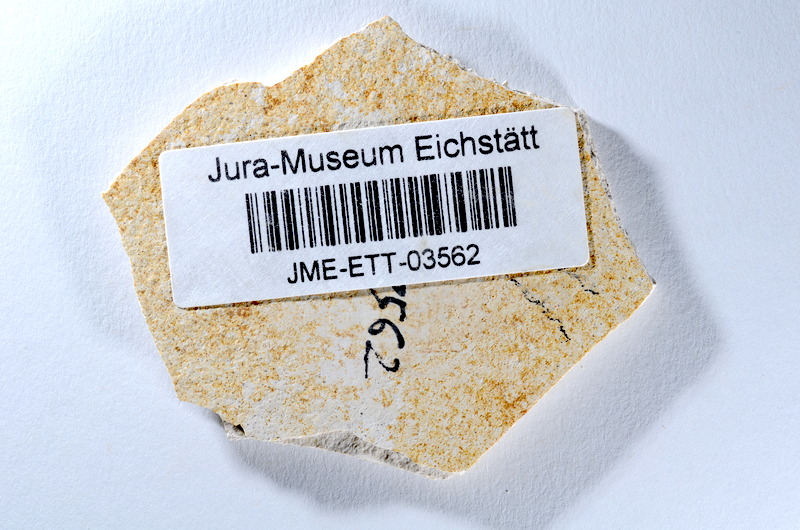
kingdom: Animalia
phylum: Chordata
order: Salmoniformes
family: Orthogonikleithridae
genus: Orthogonikleithrus
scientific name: Orthogonikleithrus hoelli
